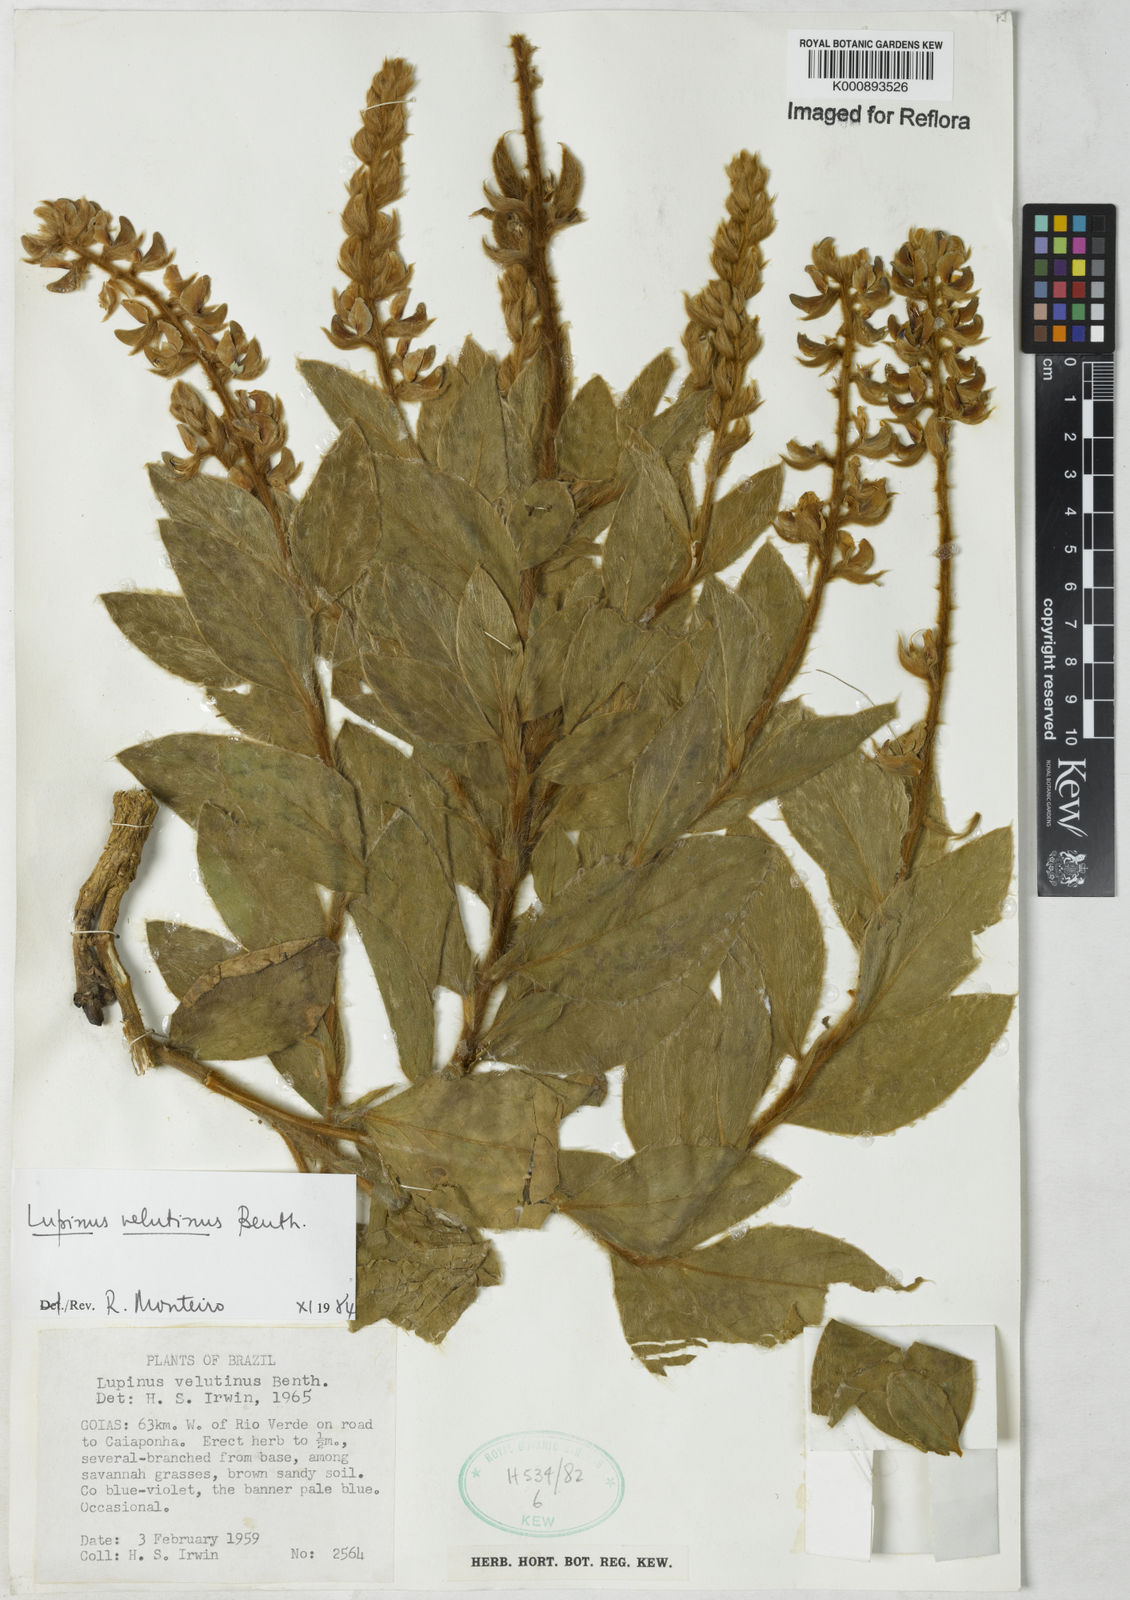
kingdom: Plantae
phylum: Tracheophyta
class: Magnoliopsida
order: Fabales
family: Fabaceae
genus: Lupinus
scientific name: Lupinus velutinus
